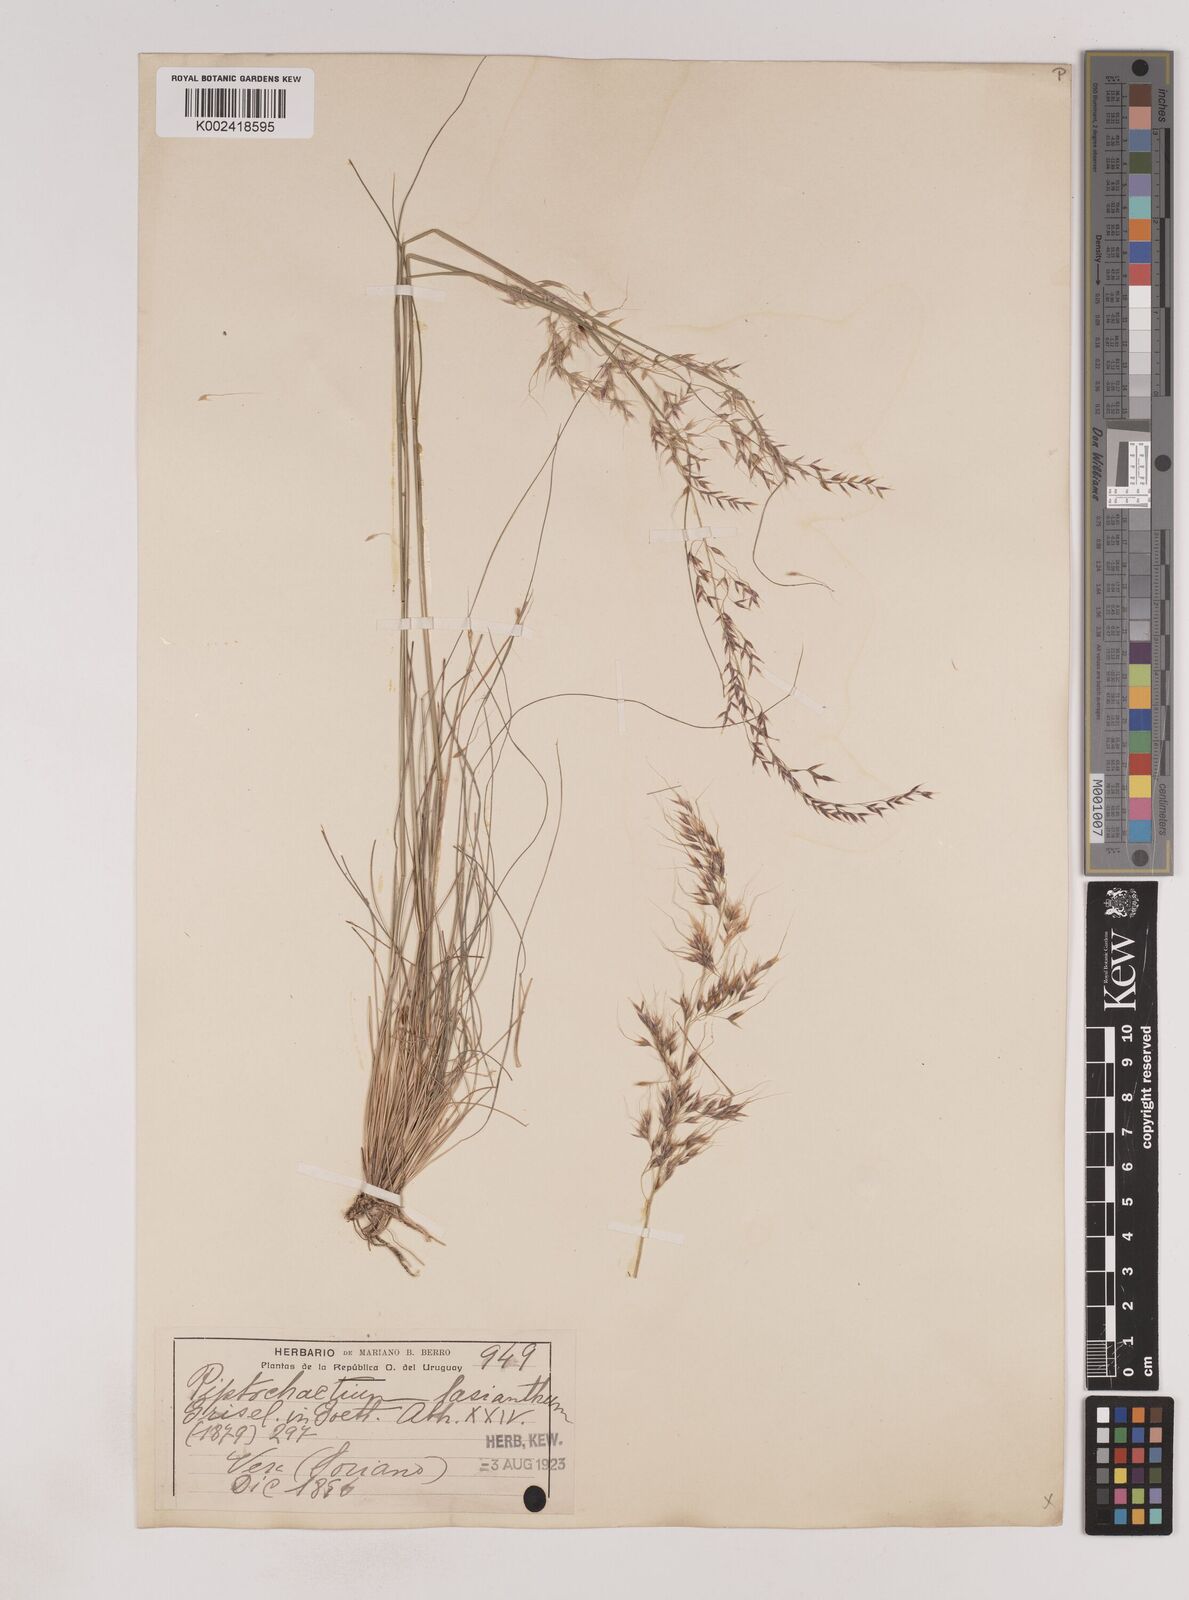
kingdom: Plantae
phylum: Tracheophyta
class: Liliopsida
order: Poales
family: Poaceae
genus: Piptochaetium
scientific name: Piptochaetium lasianthum
